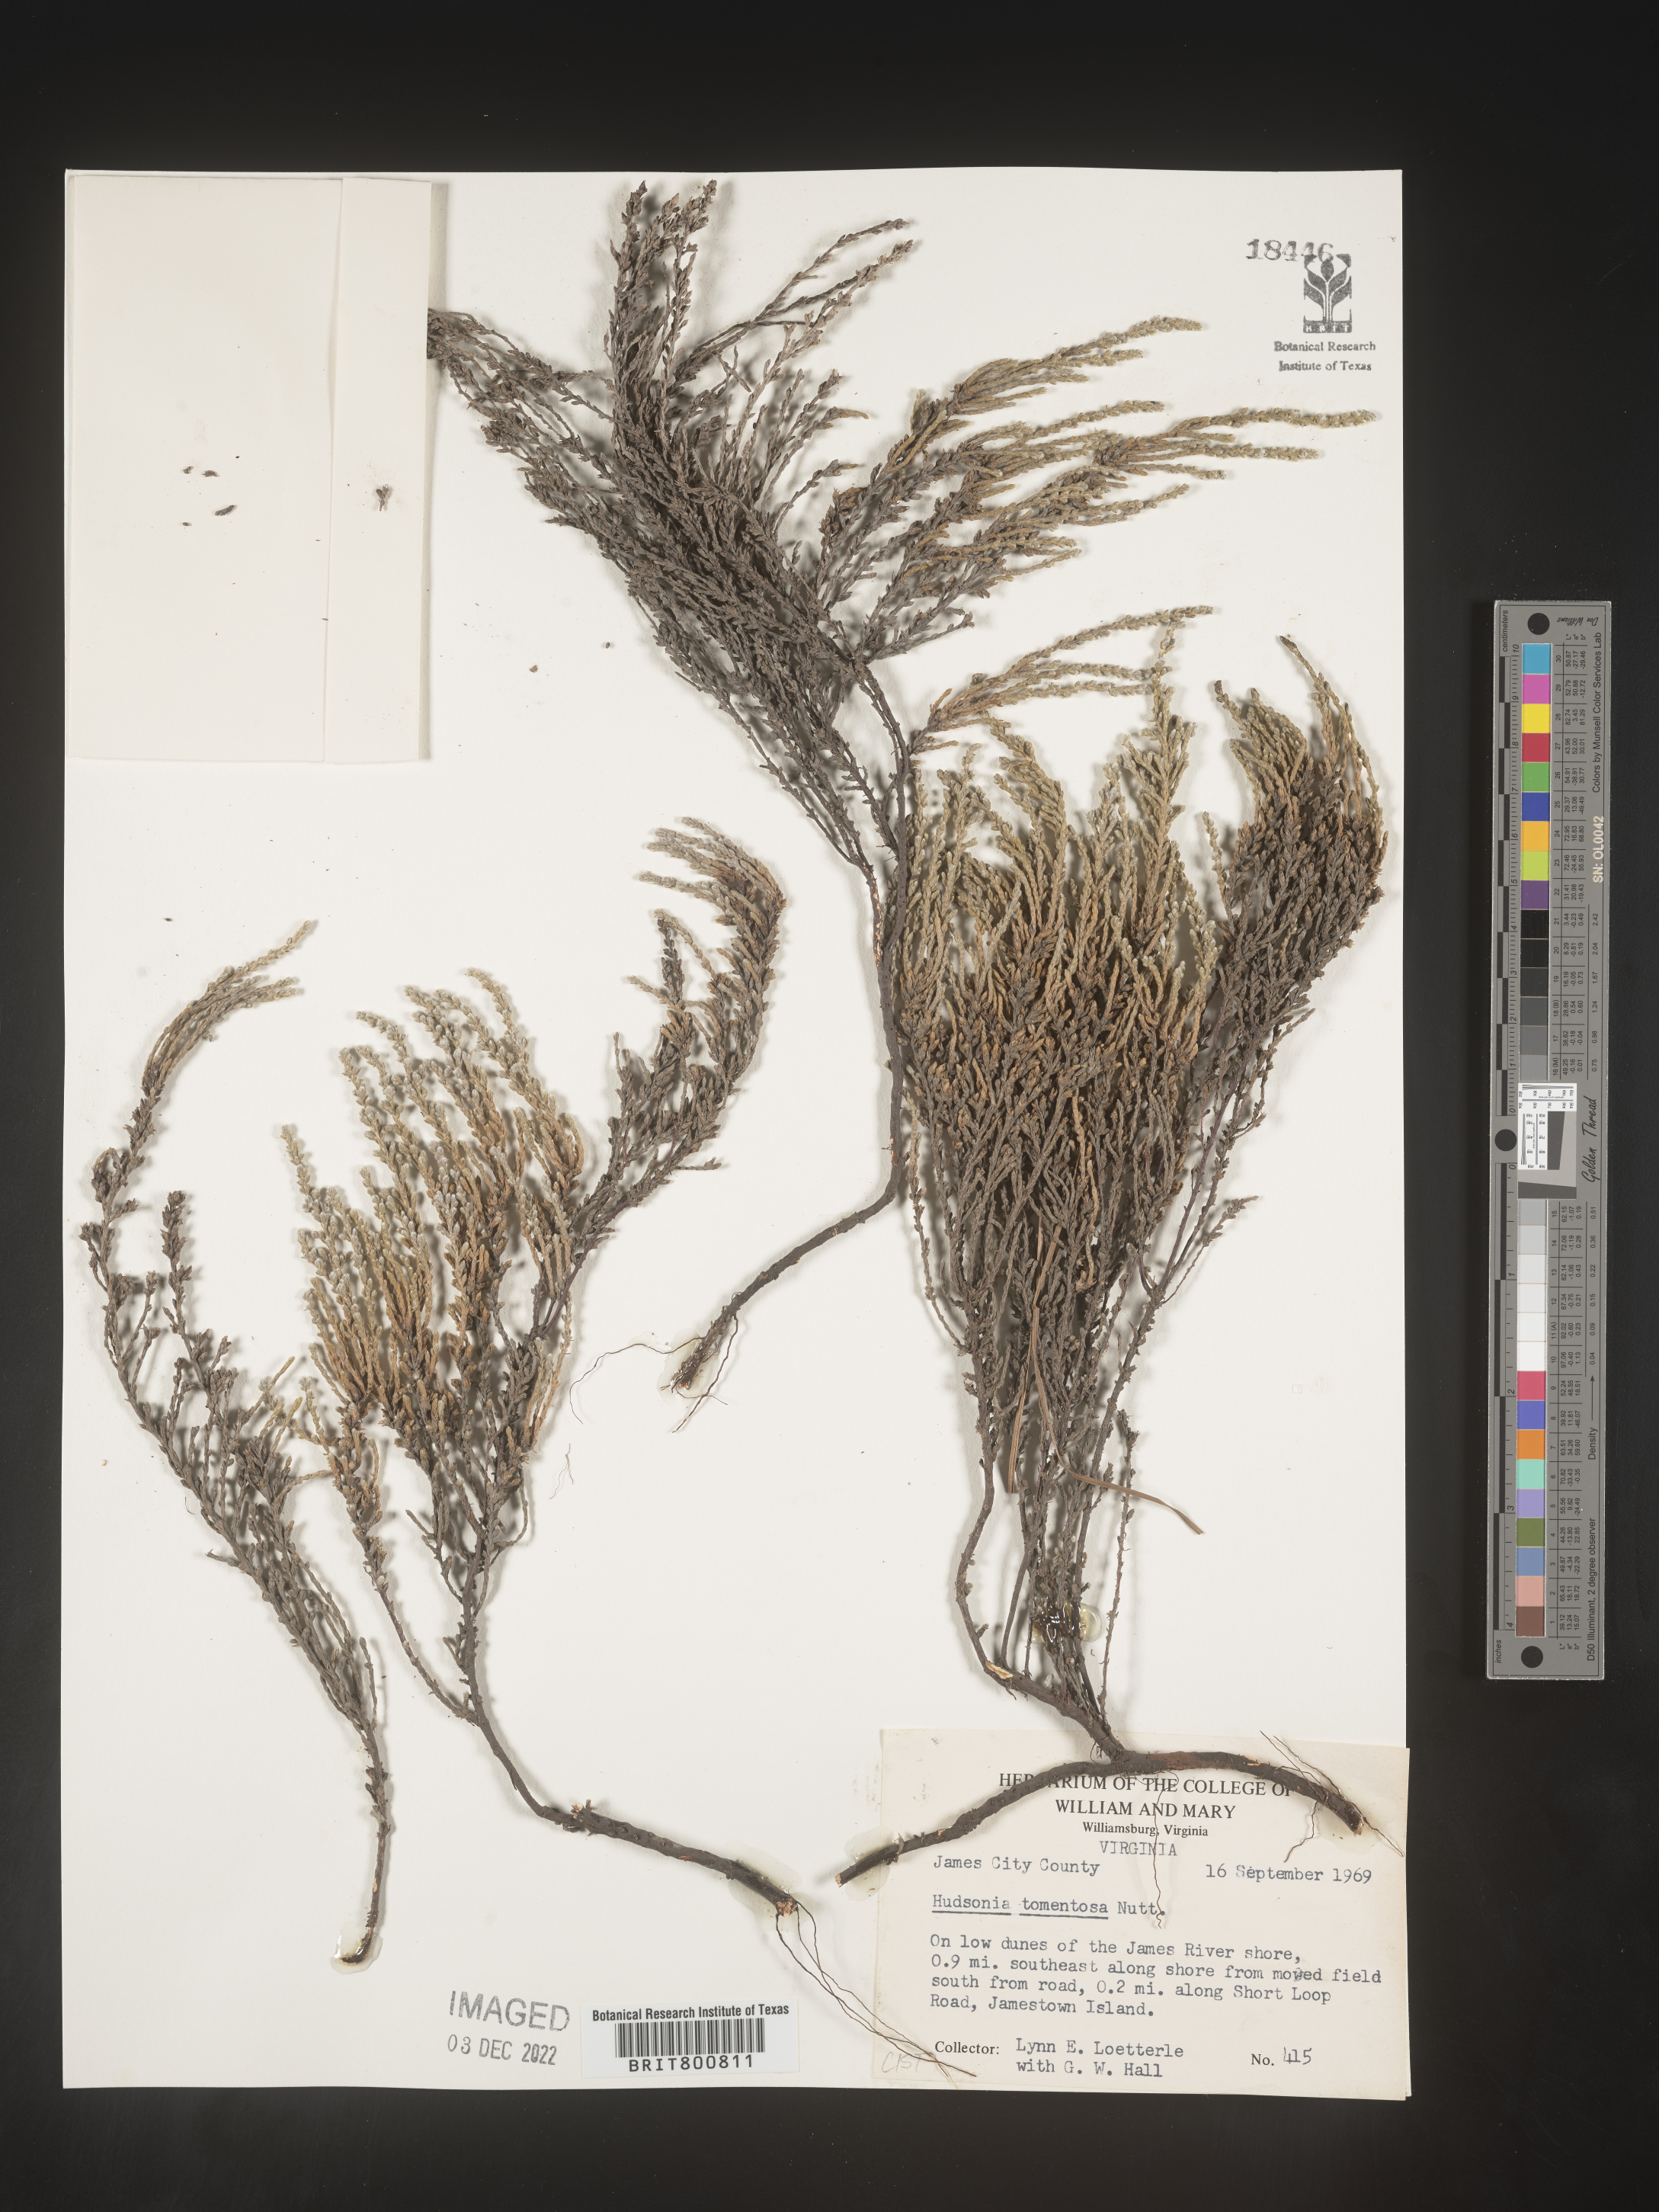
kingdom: Plantae
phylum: Tracheophyta
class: Magnoliopsida
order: Malvales
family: Cistaceae
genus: Hudsonia
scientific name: Hudsonia tomentosa
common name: Beach-heath
